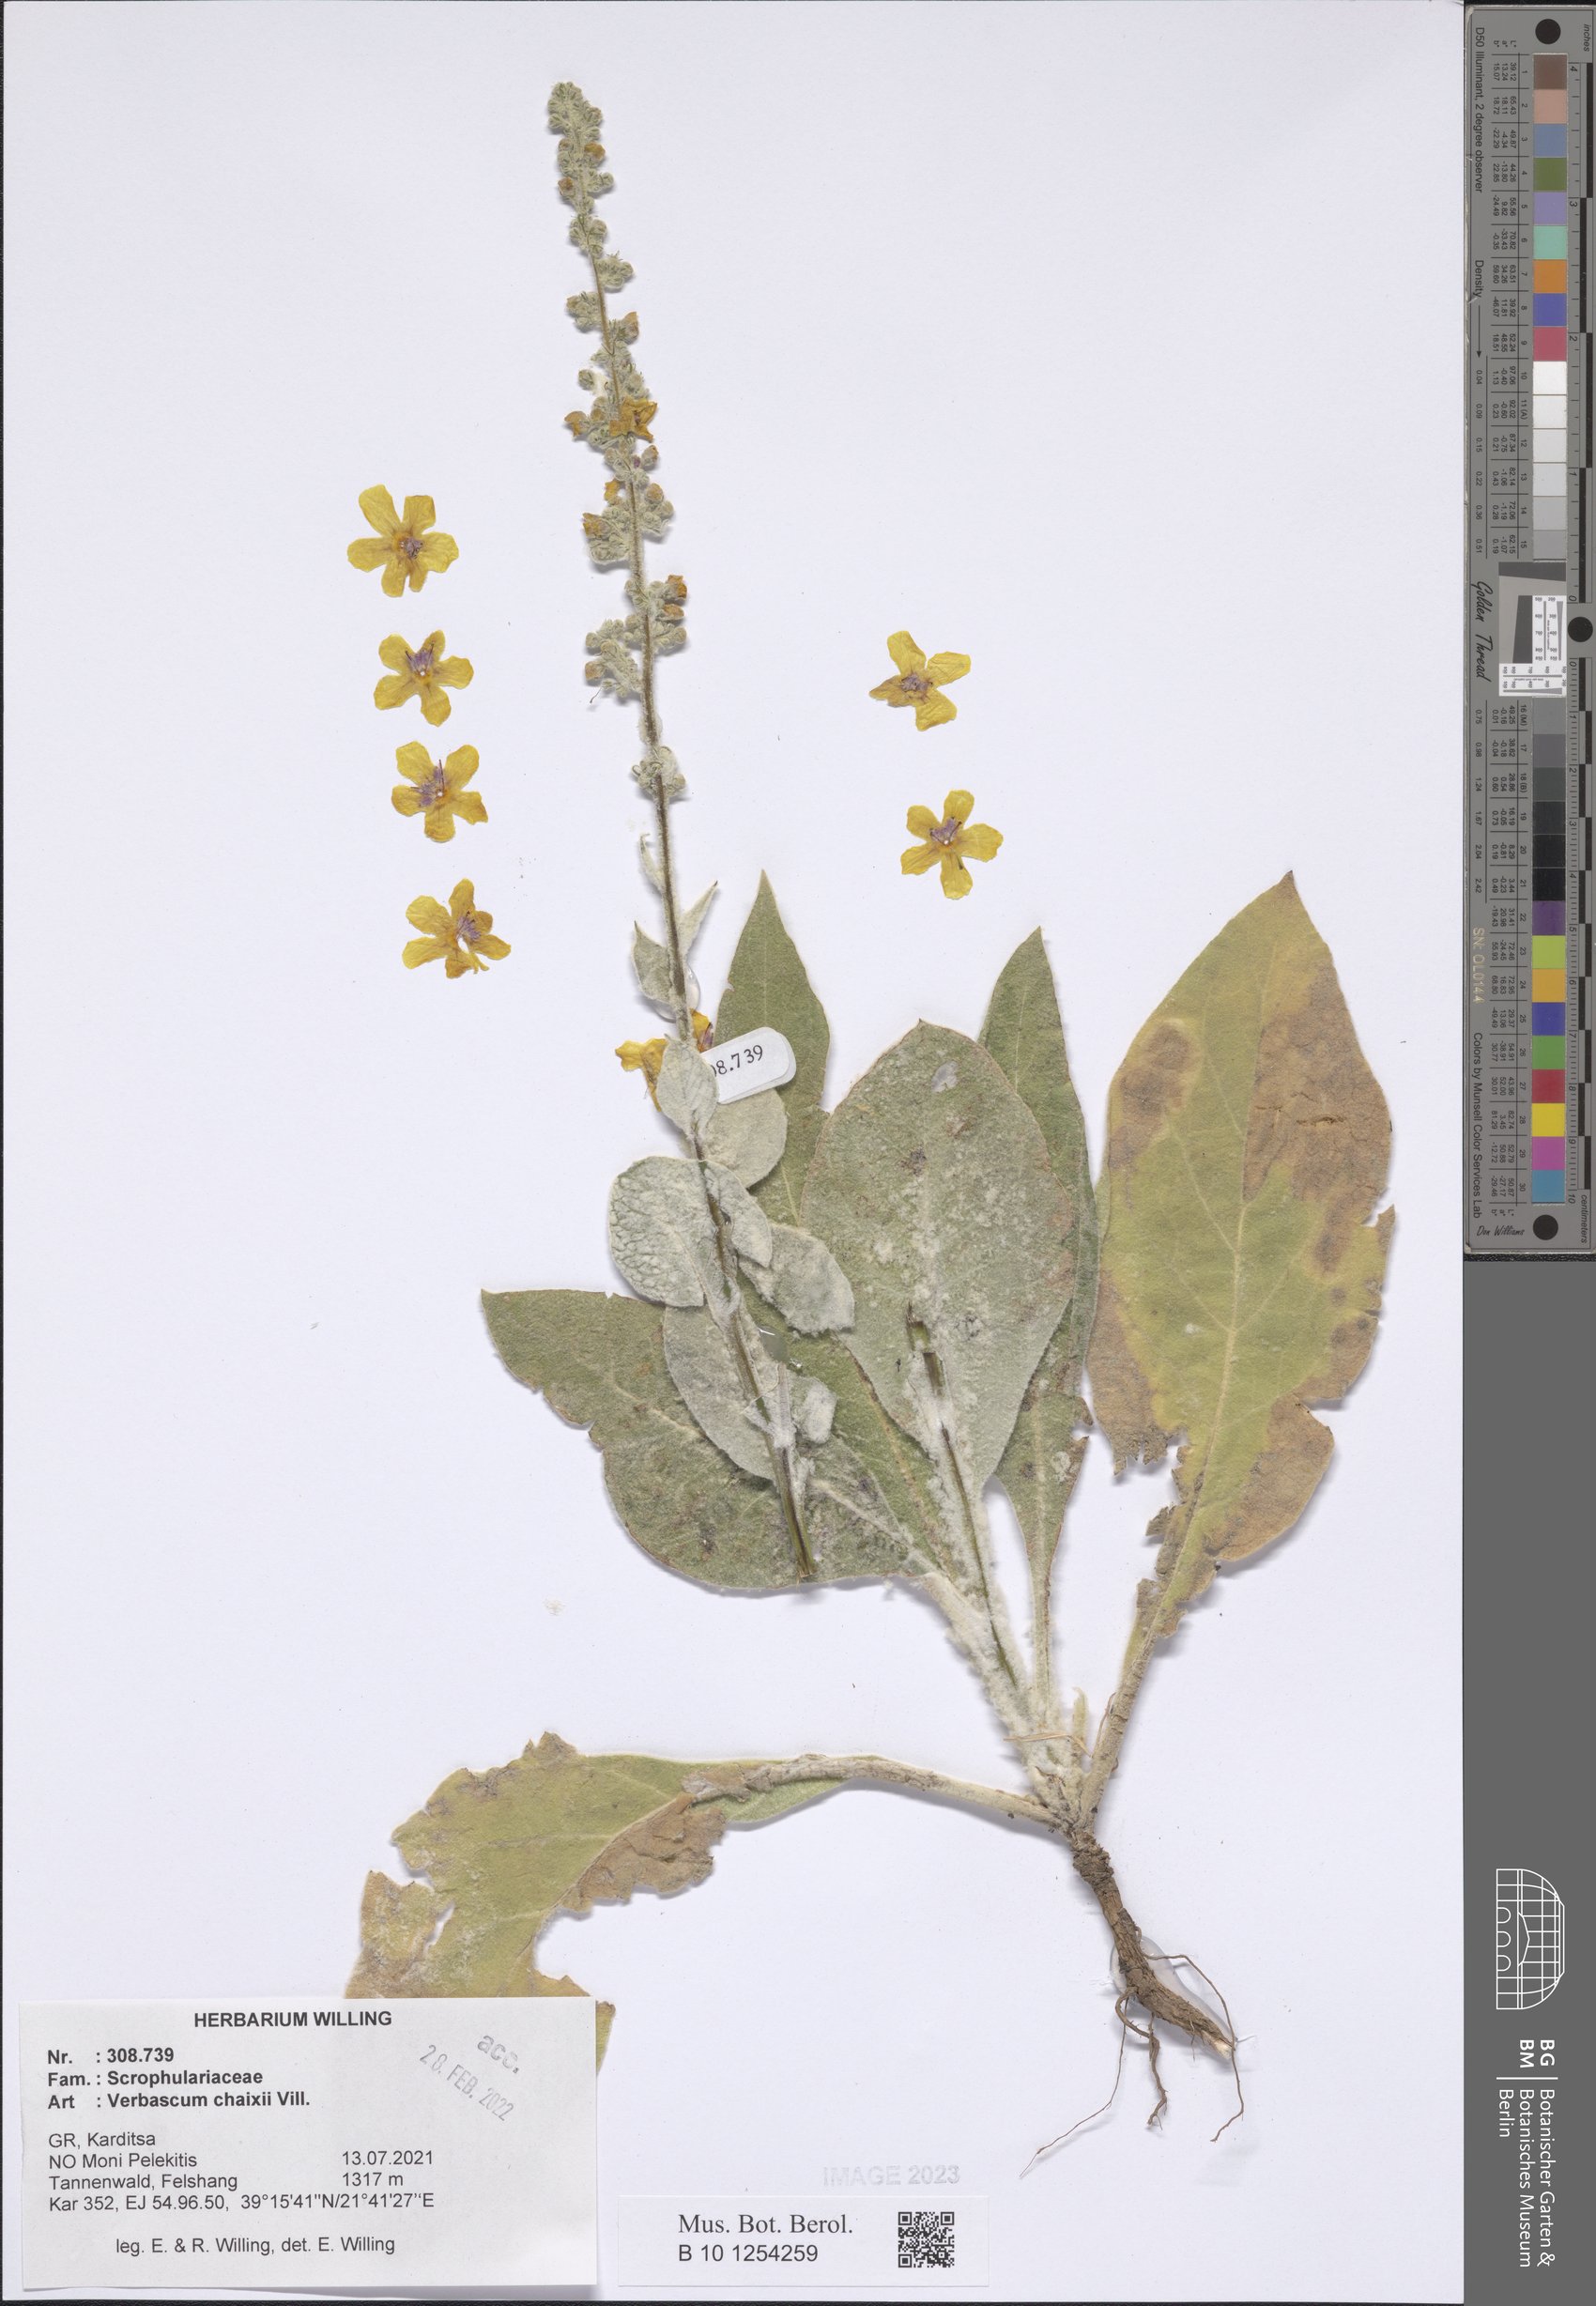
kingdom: Plantae
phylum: Tracheophyta
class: Magnoliopsida
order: Lamiales
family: Scrophulariaceae
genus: Verbascum
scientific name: Verbascum chaixii
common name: Nettle-leaved mullein
